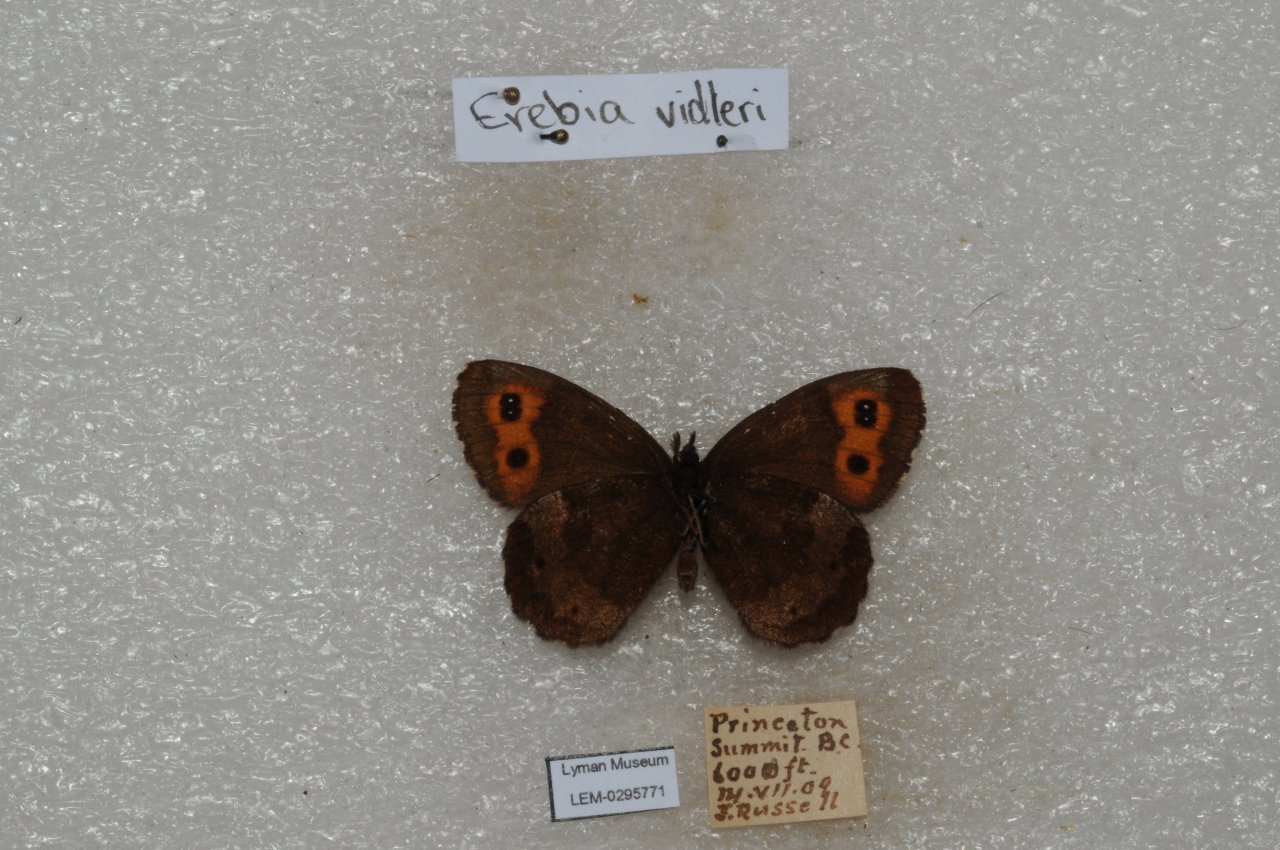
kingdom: Animalia
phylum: Arthropoda
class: Insecta
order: Lepidoptera
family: Nymphalidae
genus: Erebia
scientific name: Erebia vidleri
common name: Vidler's Alpine
